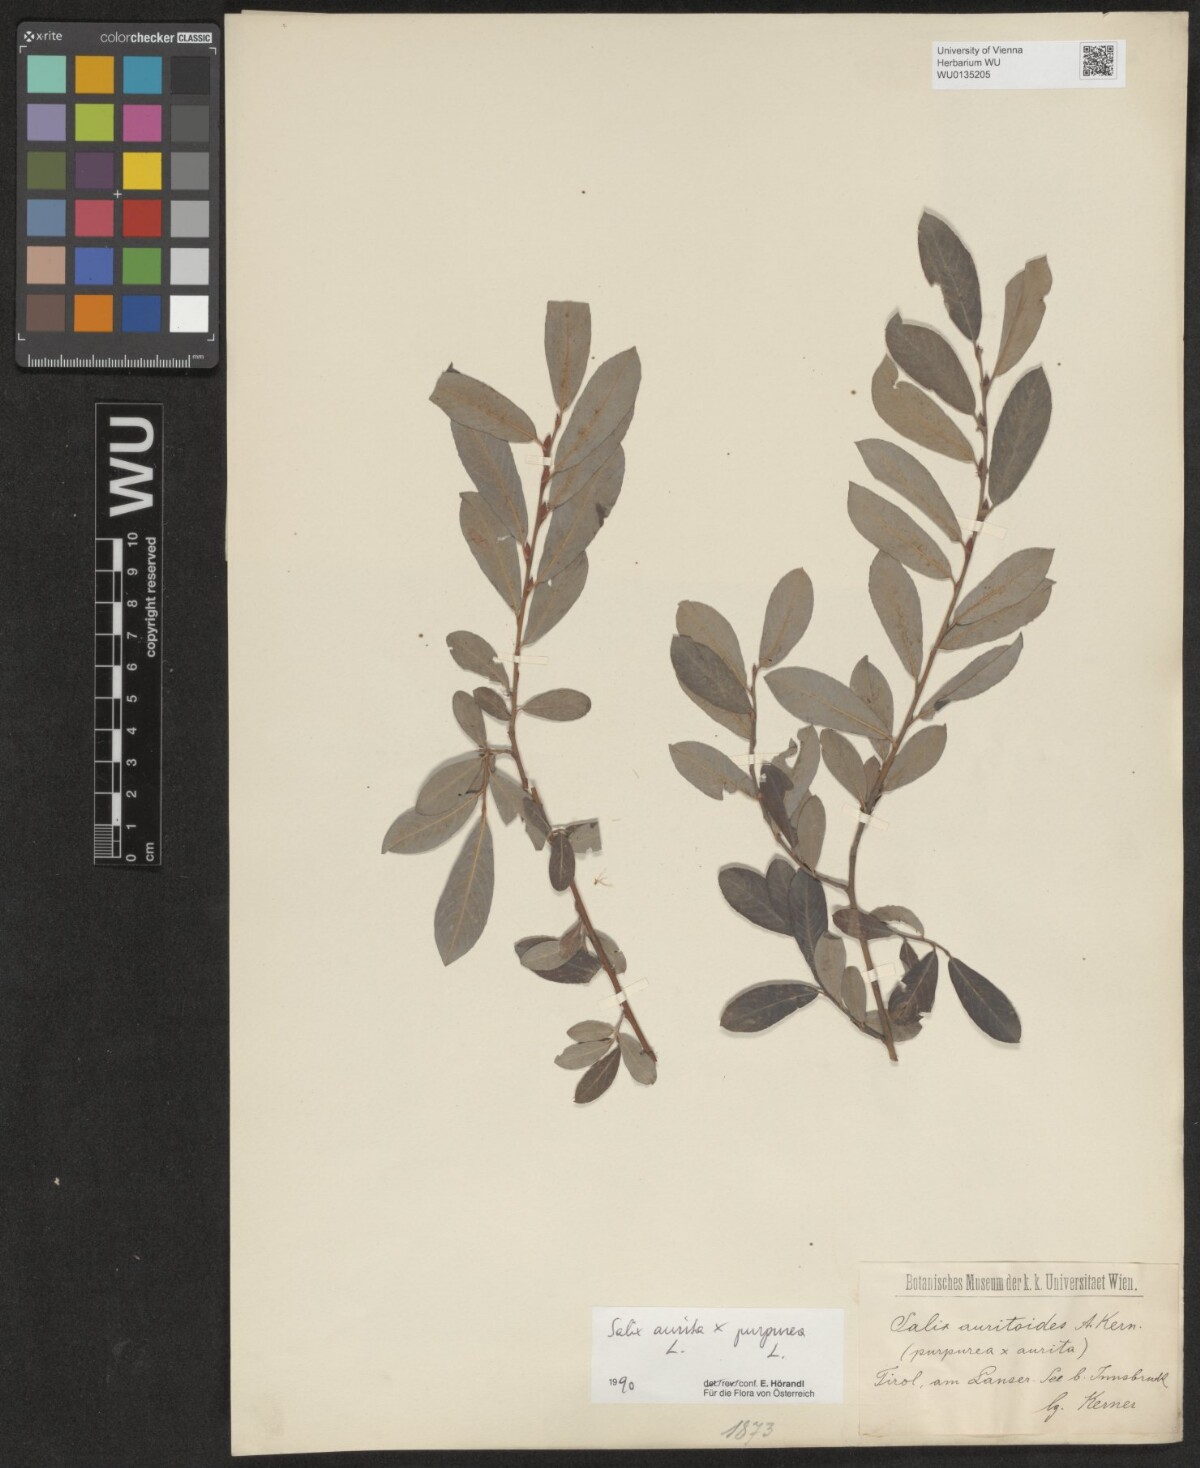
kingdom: Plantae
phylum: Tracheophyta
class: Magnoliopsida
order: Malpighiales
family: Salicaceae
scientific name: Salicaceae
